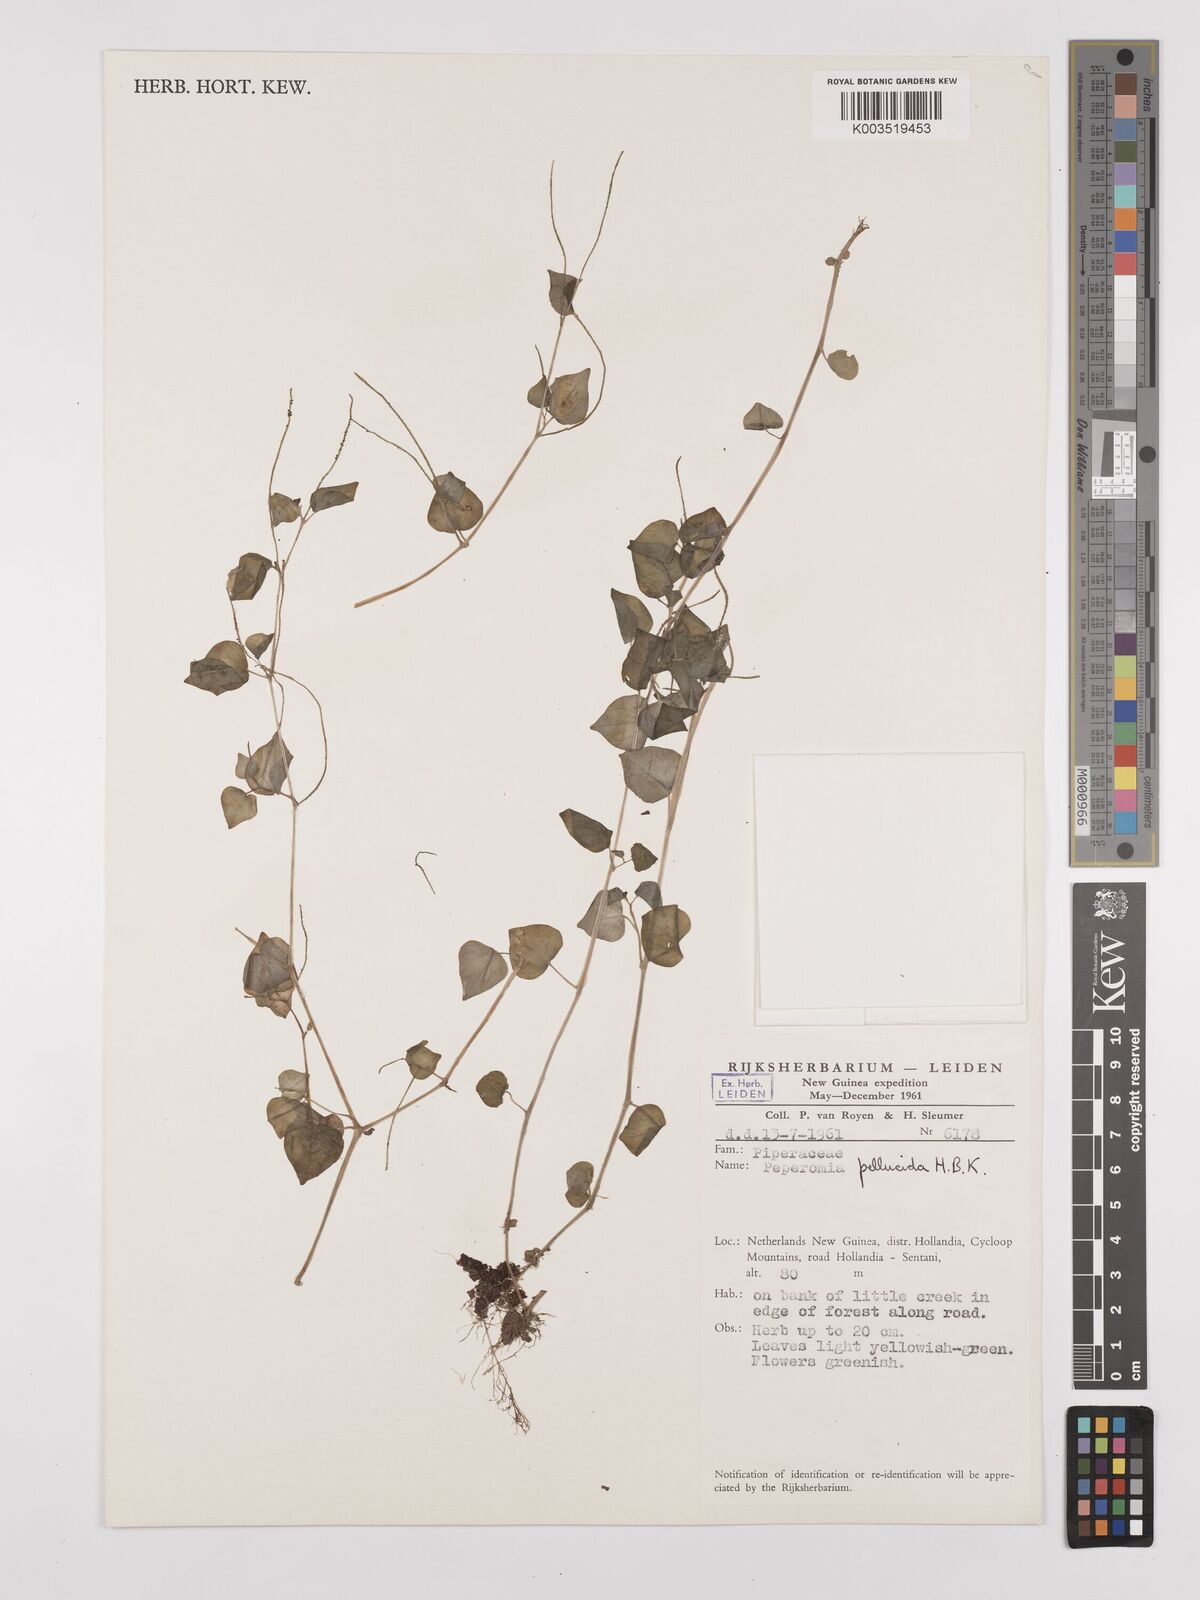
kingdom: Plantae
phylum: Tracheophyta
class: Magnoliopsida
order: Piperales
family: Piperaceae
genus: Peperomia
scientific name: Peperomia pellucida
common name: Man to man
